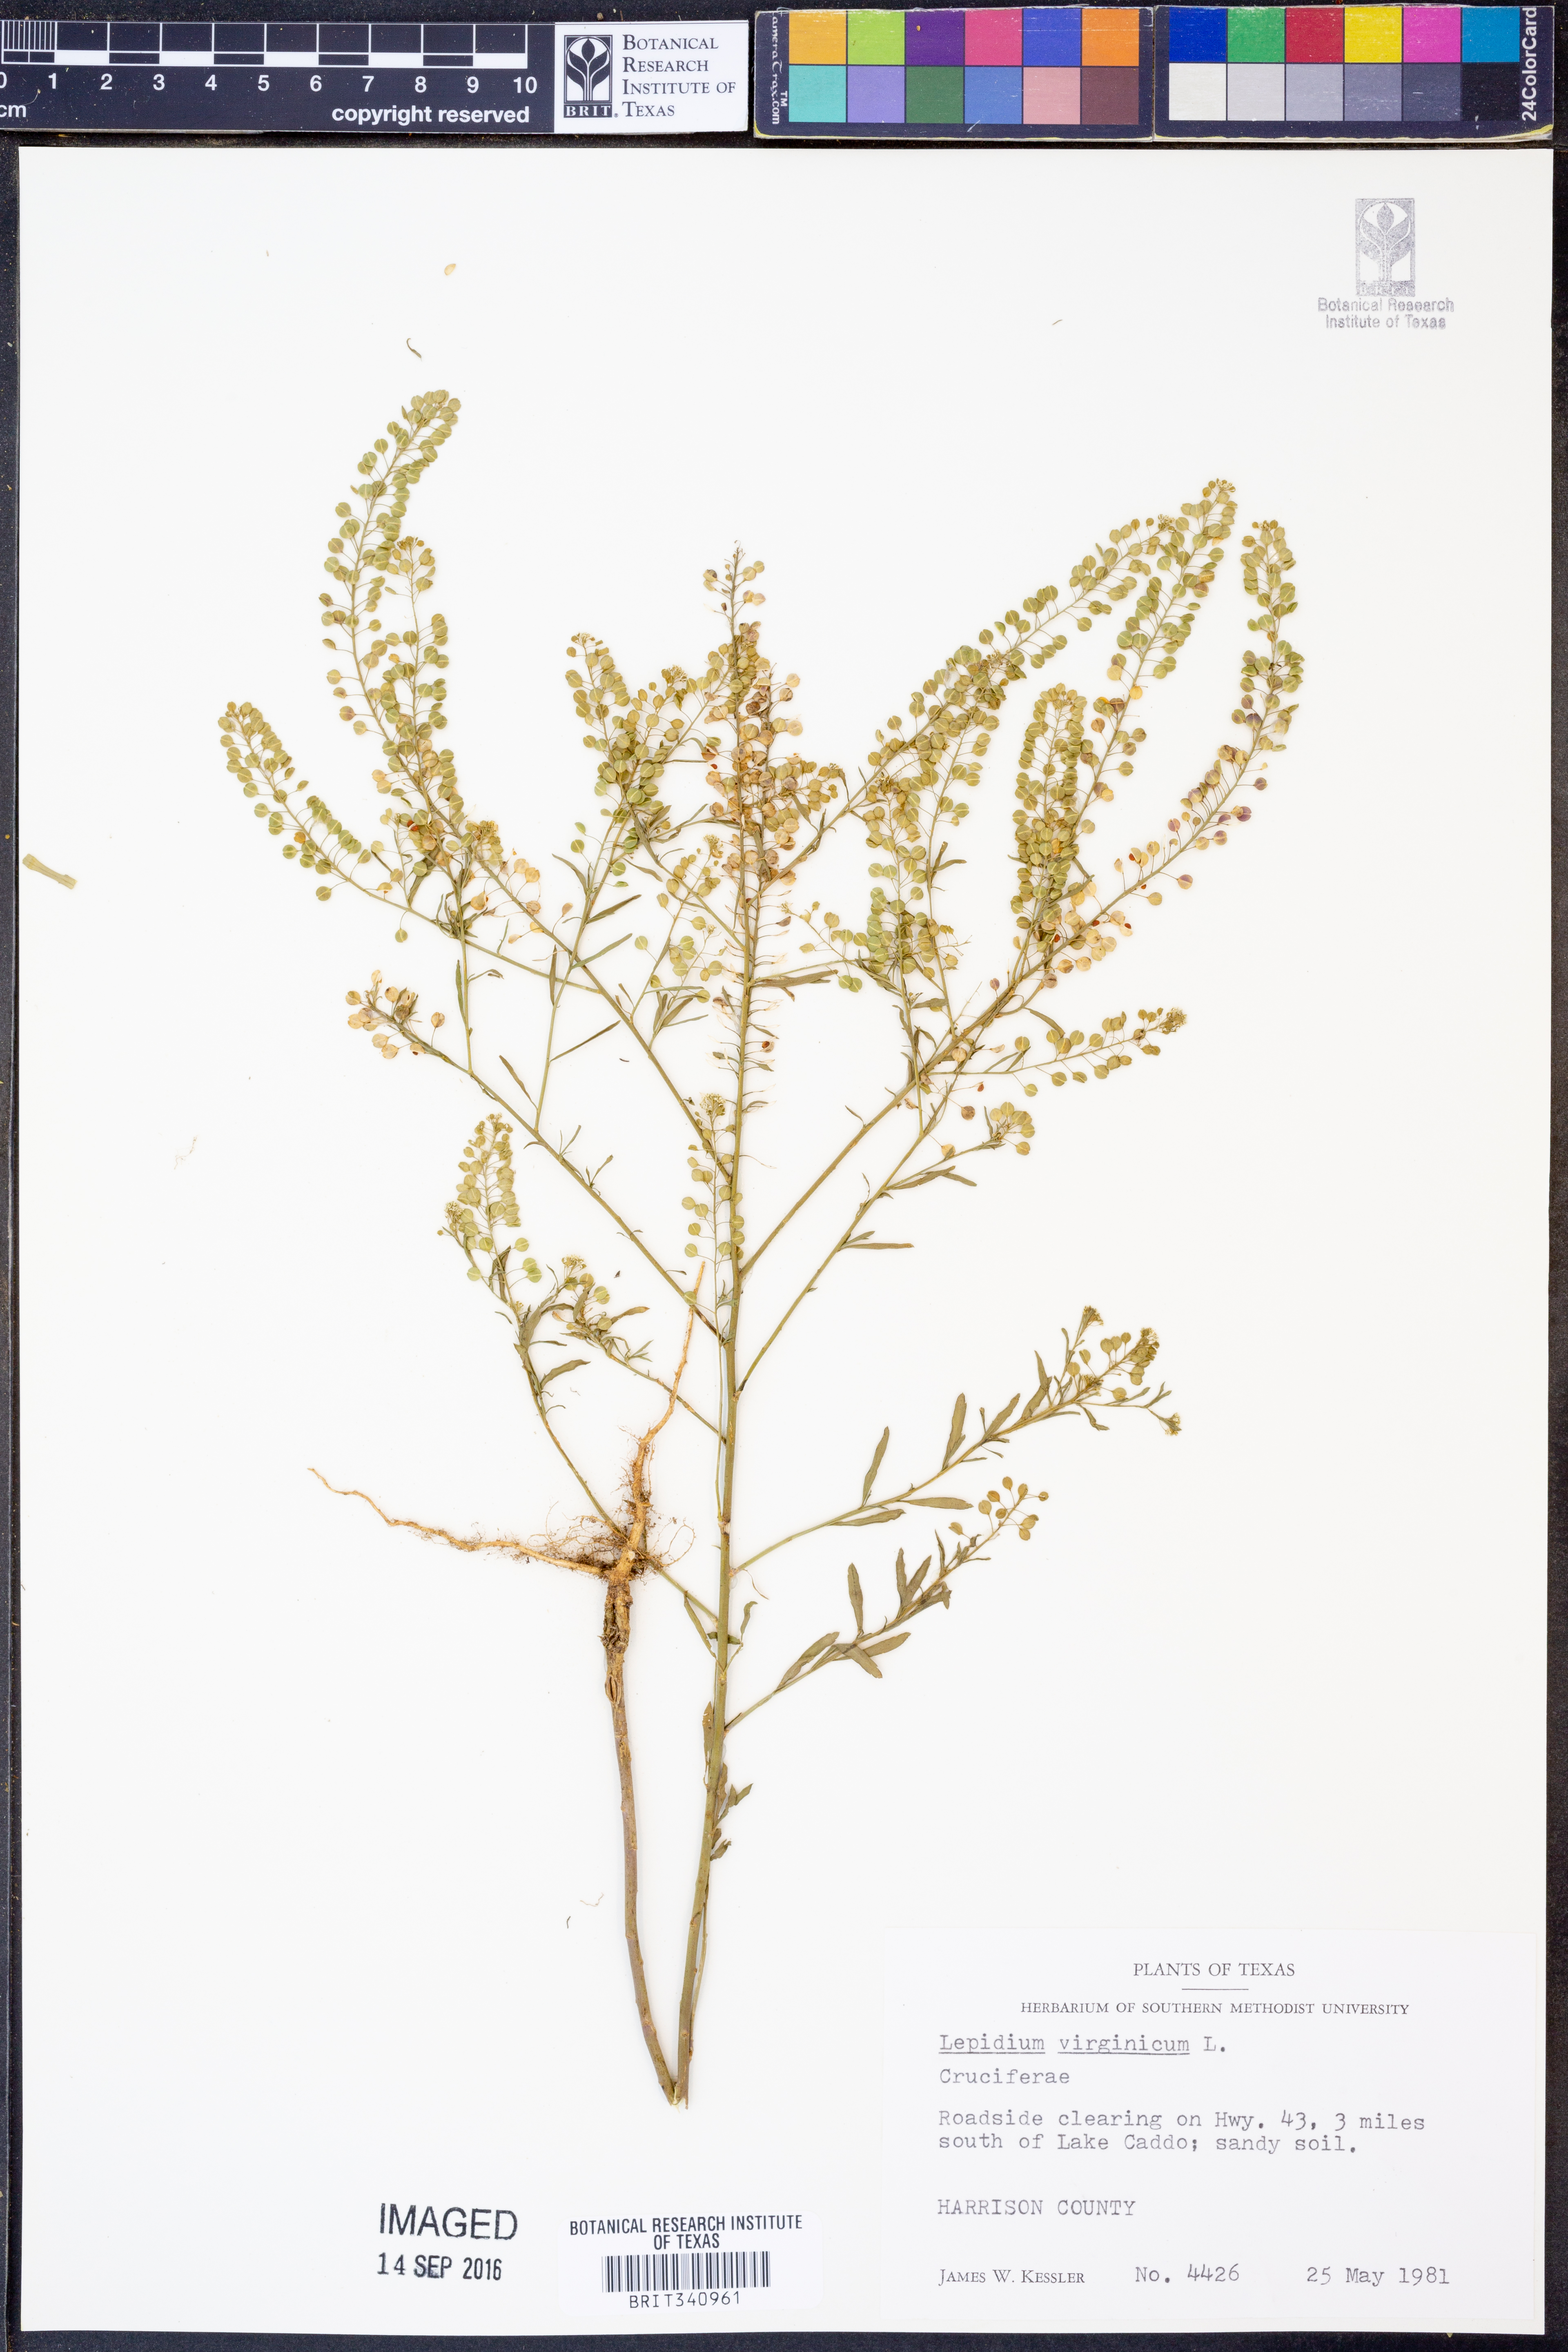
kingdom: Plantae
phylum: Tracheophyta
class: Magnoliopsida
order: Brassicales
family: Brassicaceae
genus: Lepidium
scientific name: Lepidium virginicum
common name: Least pepperwort
